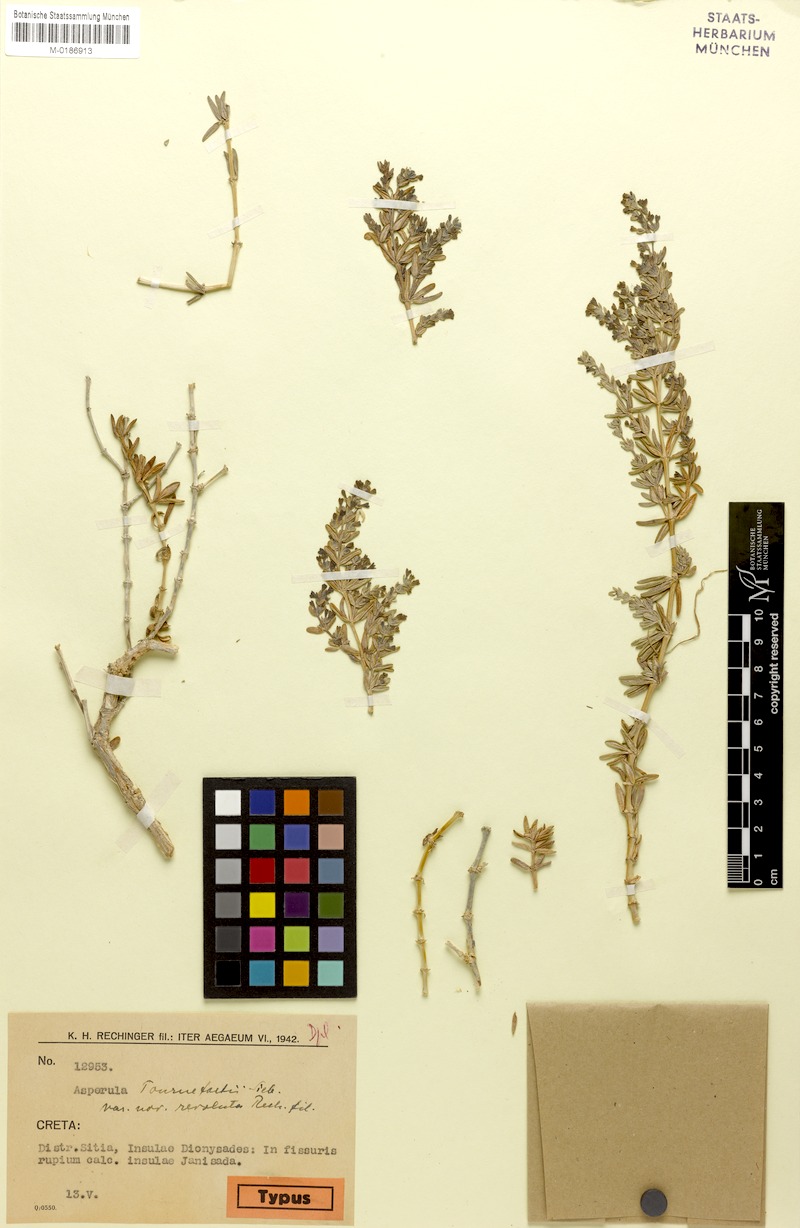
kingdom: Plantae
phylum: Tracheophyta
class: Magnoliopsida
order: Gentianales
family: Rubiaceae
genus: Asperula
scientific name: Asperula tournefortii
